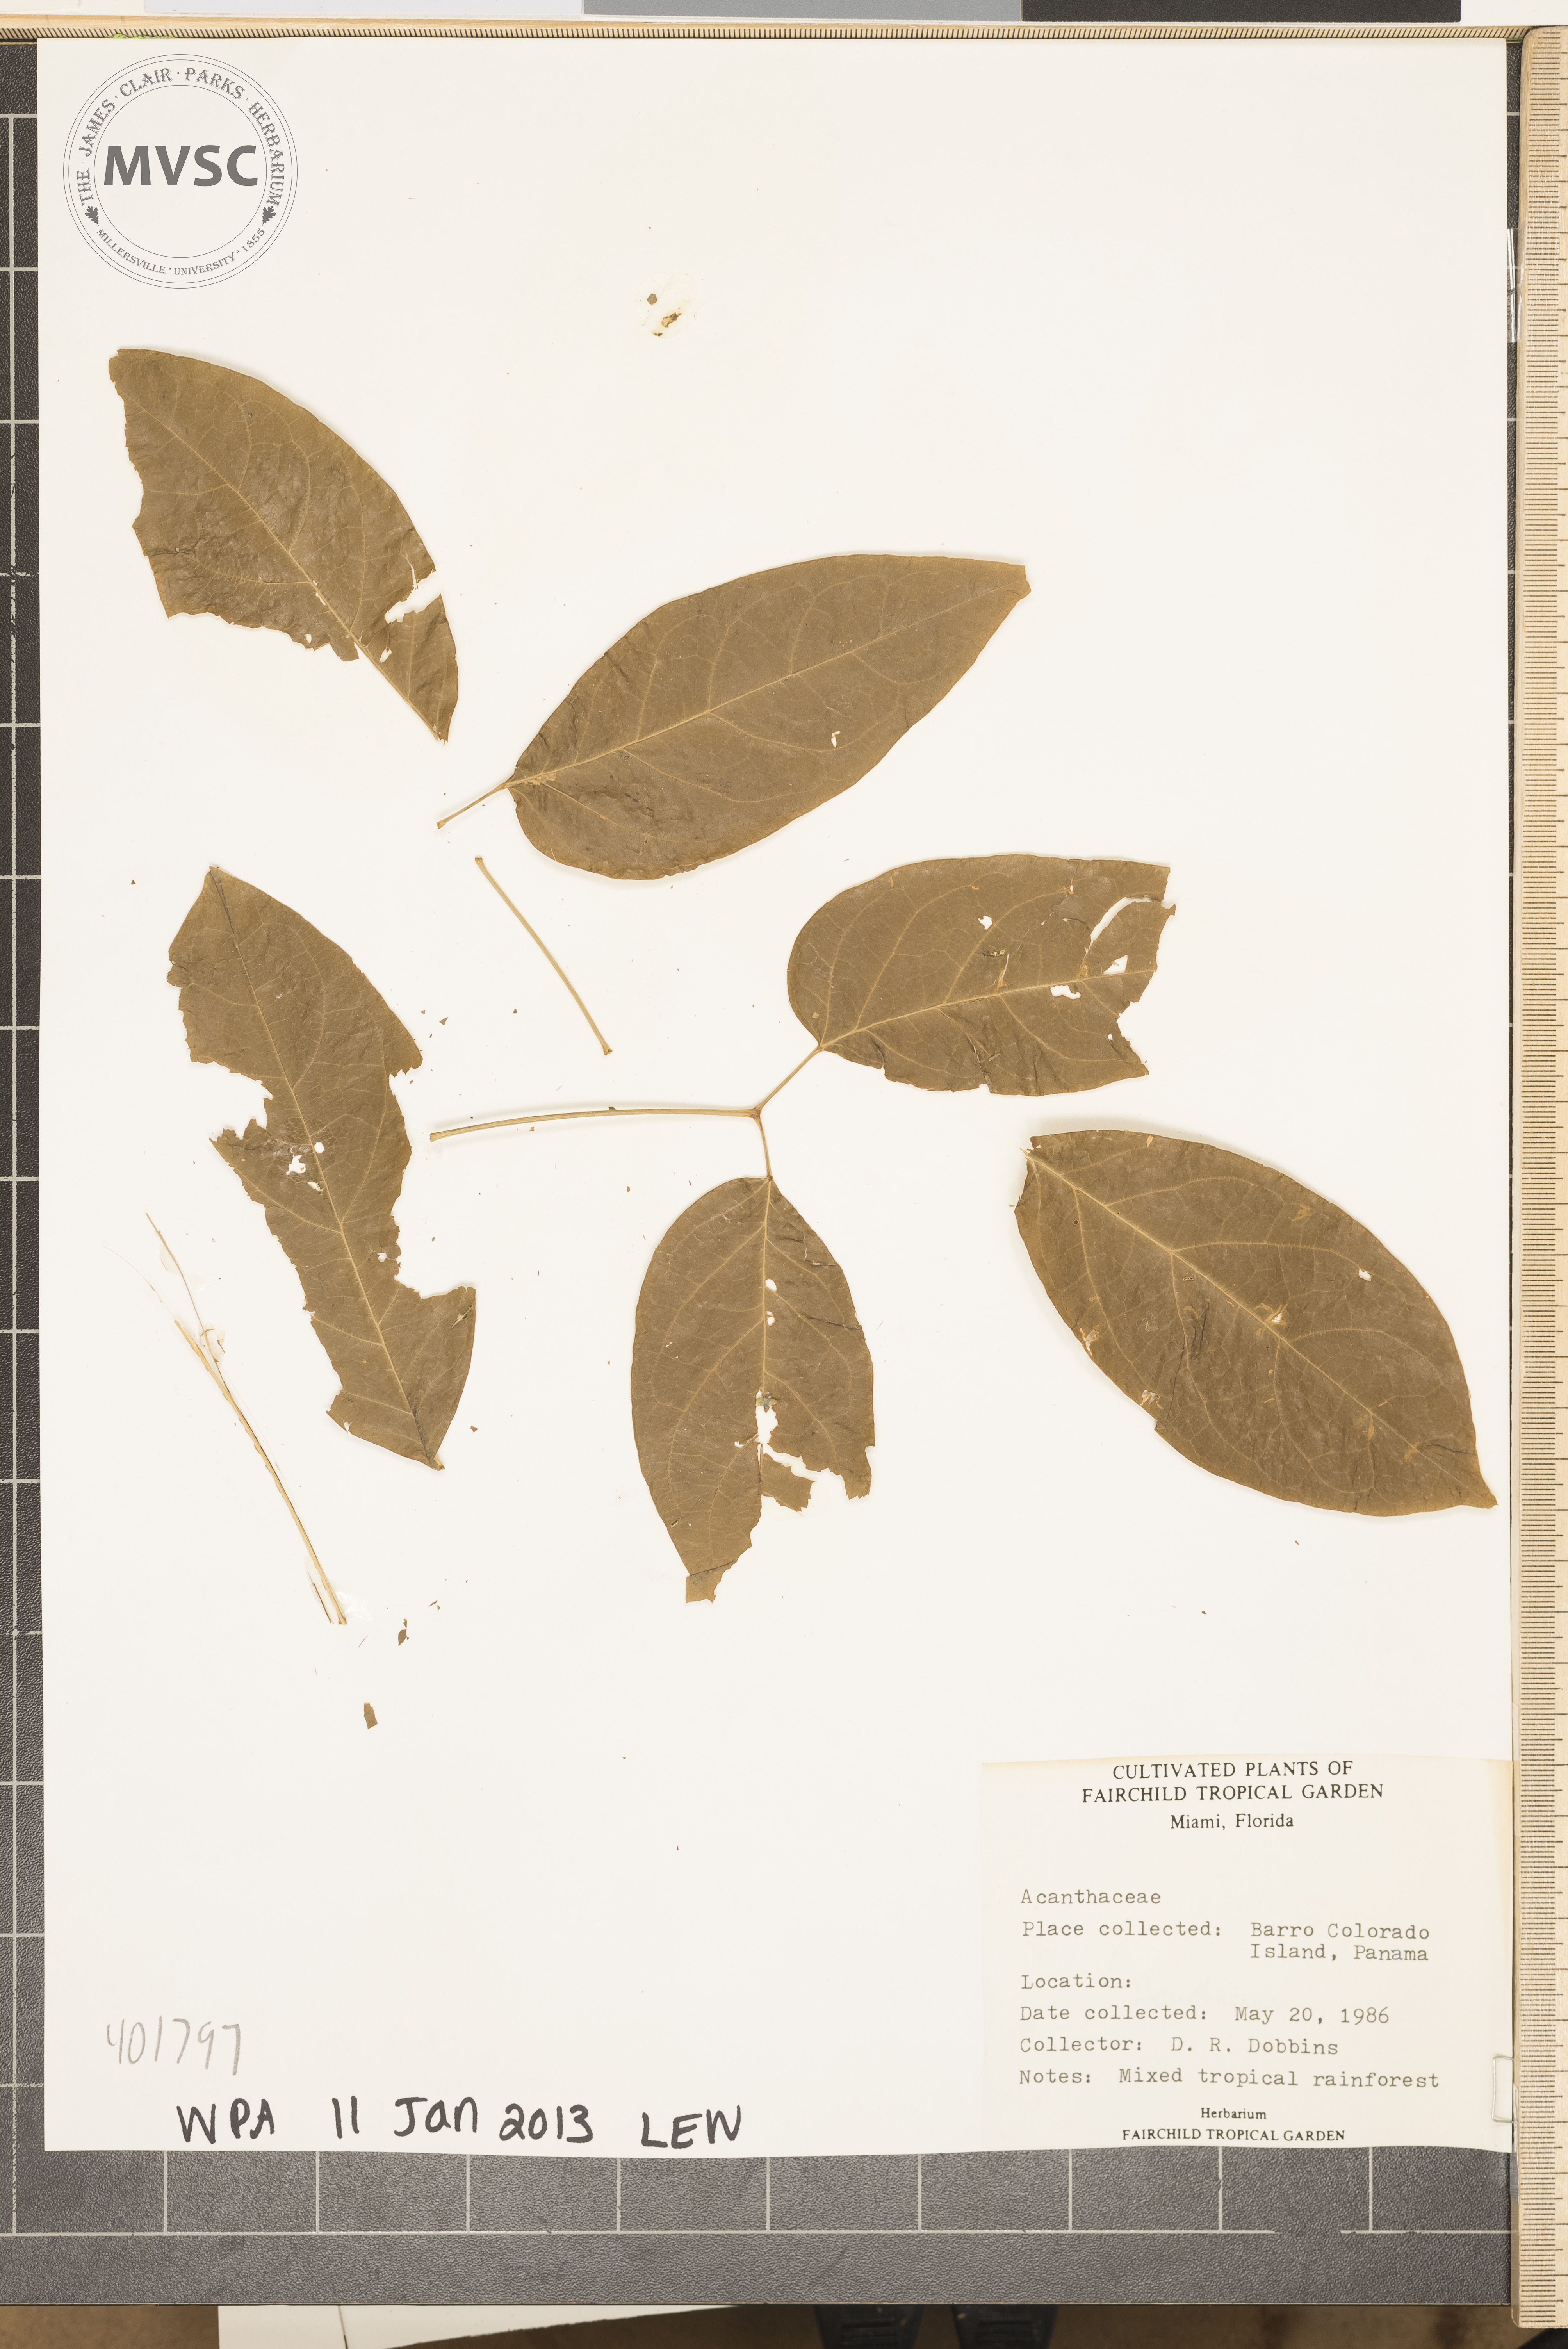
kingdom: Plantae
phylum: Tracheophyta
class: Magnoliopsida
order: Lamiales
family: Acanthaceae
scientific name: Acanthaceae
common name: Acanthaceae
